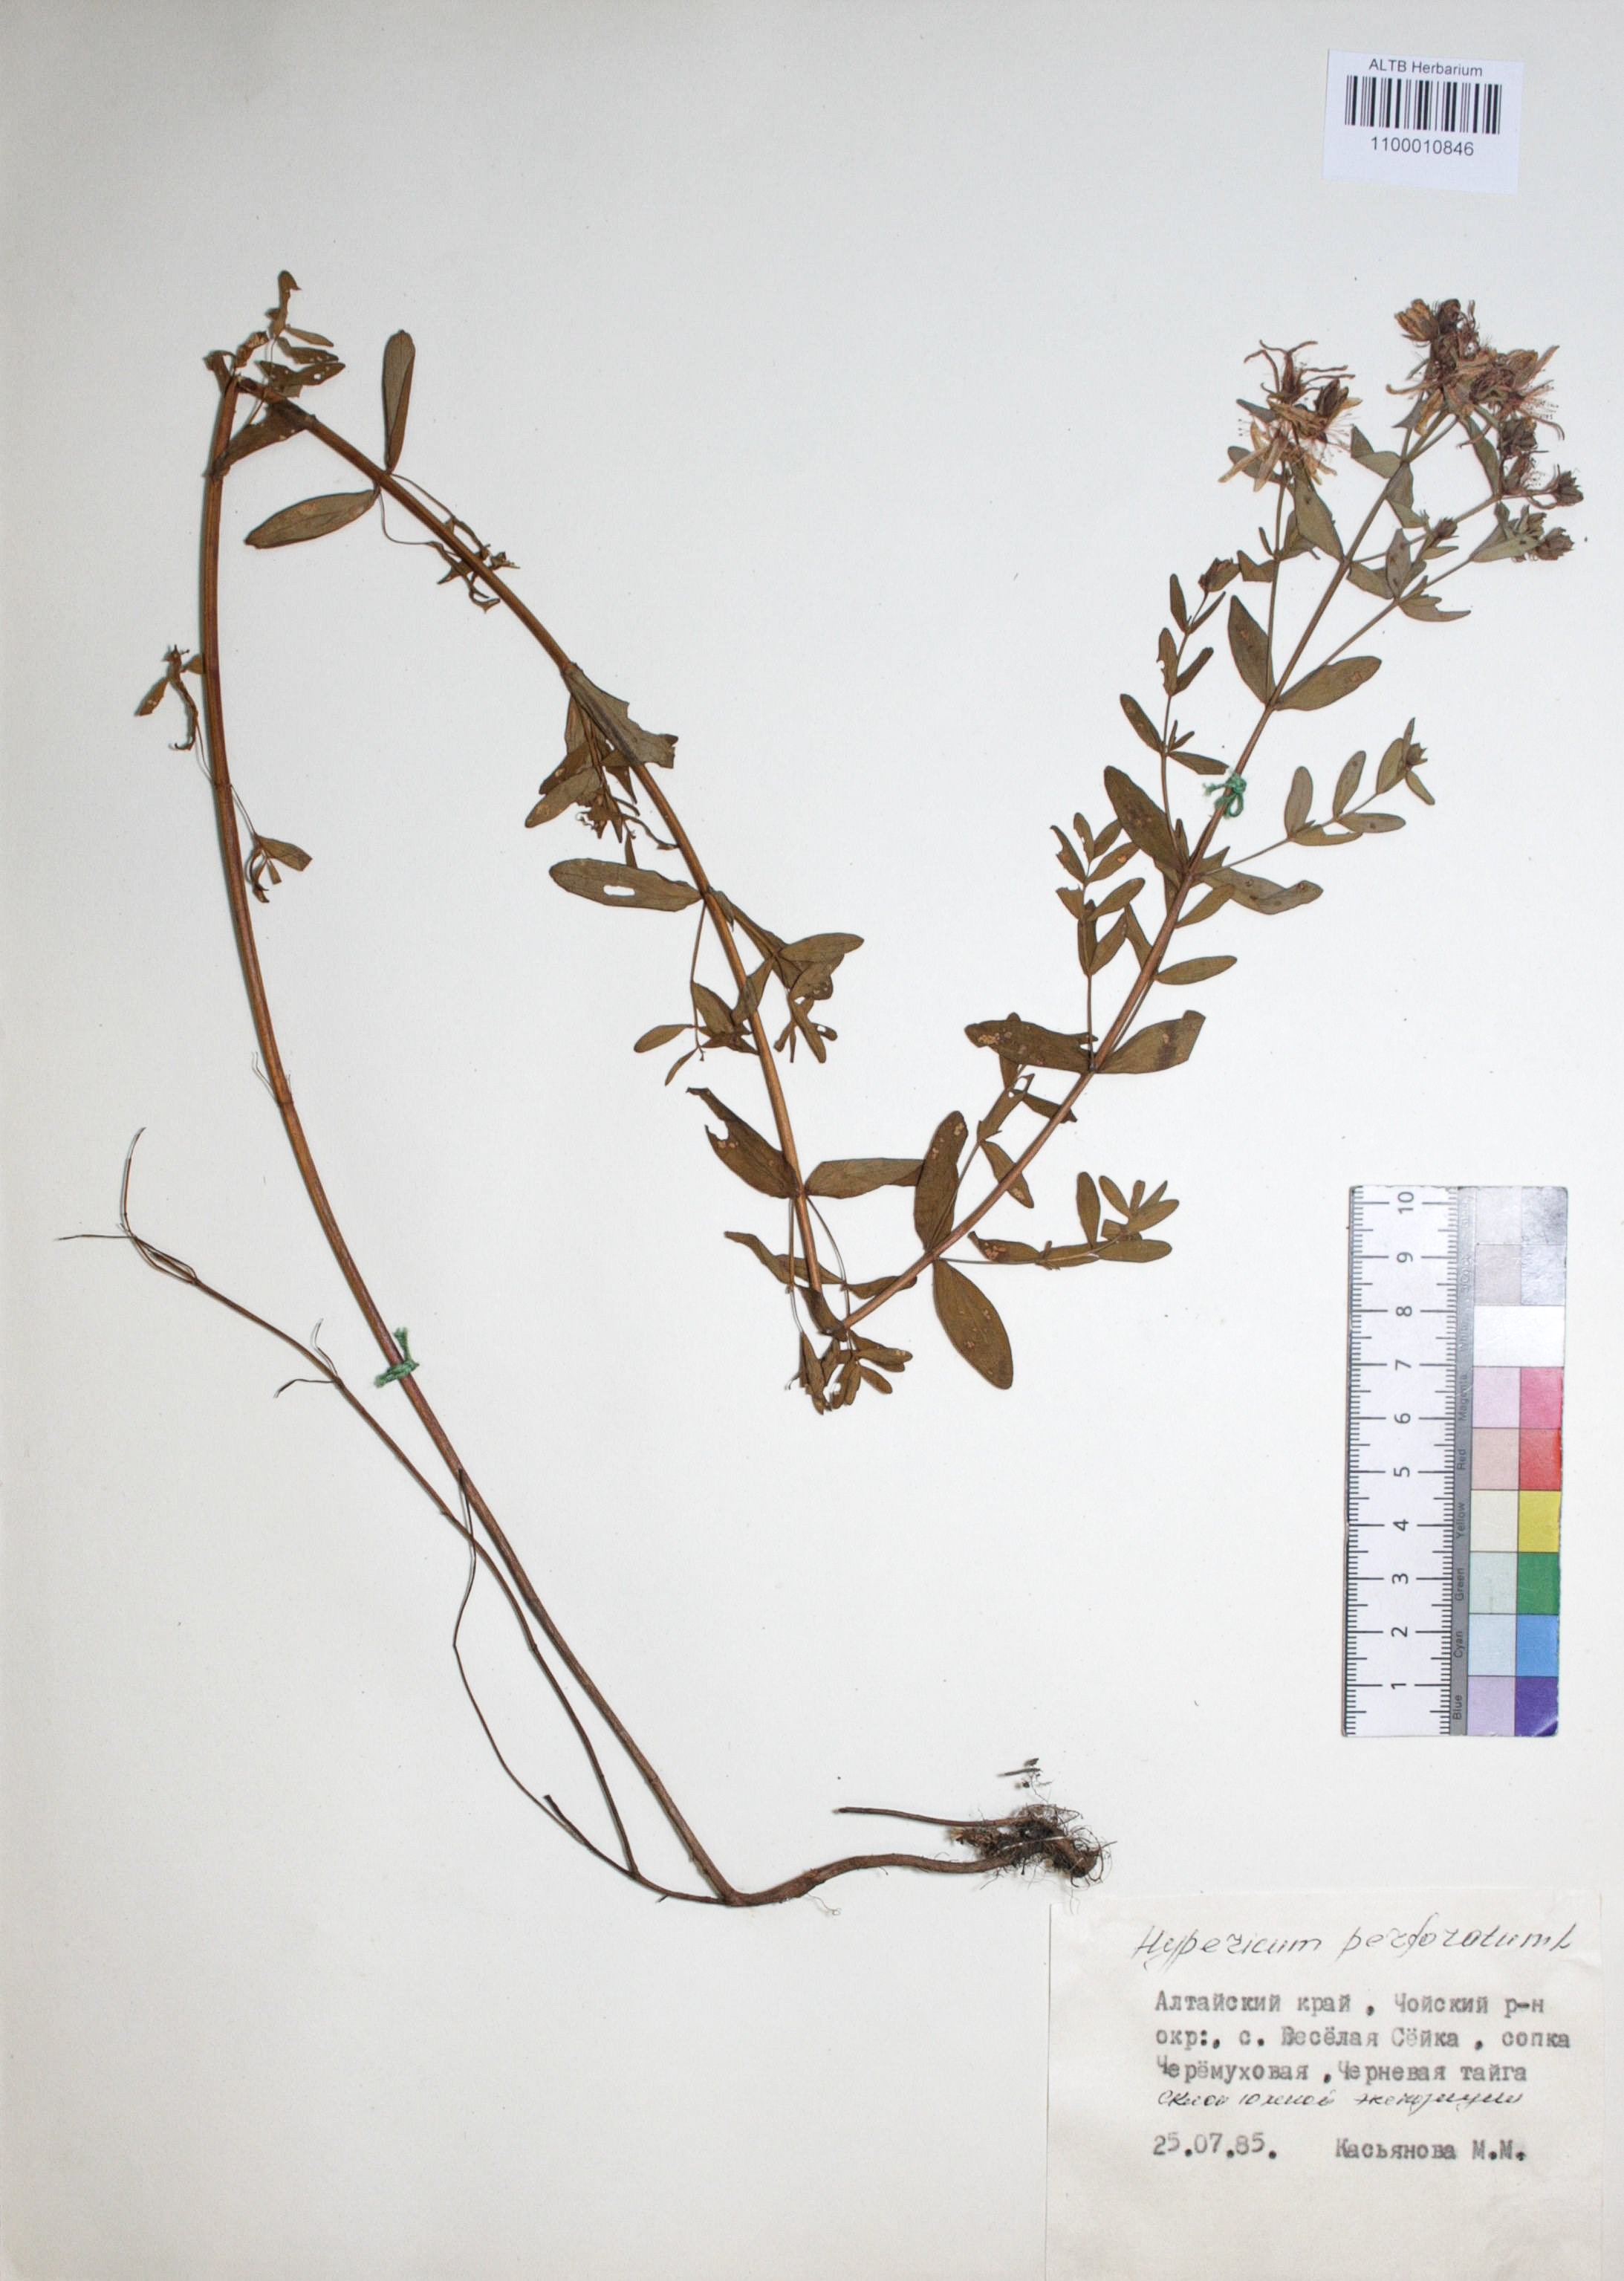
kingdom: Plantae
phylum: Tracheophyta
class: Magnoliopsida
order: Malpighiales
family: Hypericaceae
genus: Hypericum
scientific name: Hypericum perforatum
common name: Common st. johnswort
